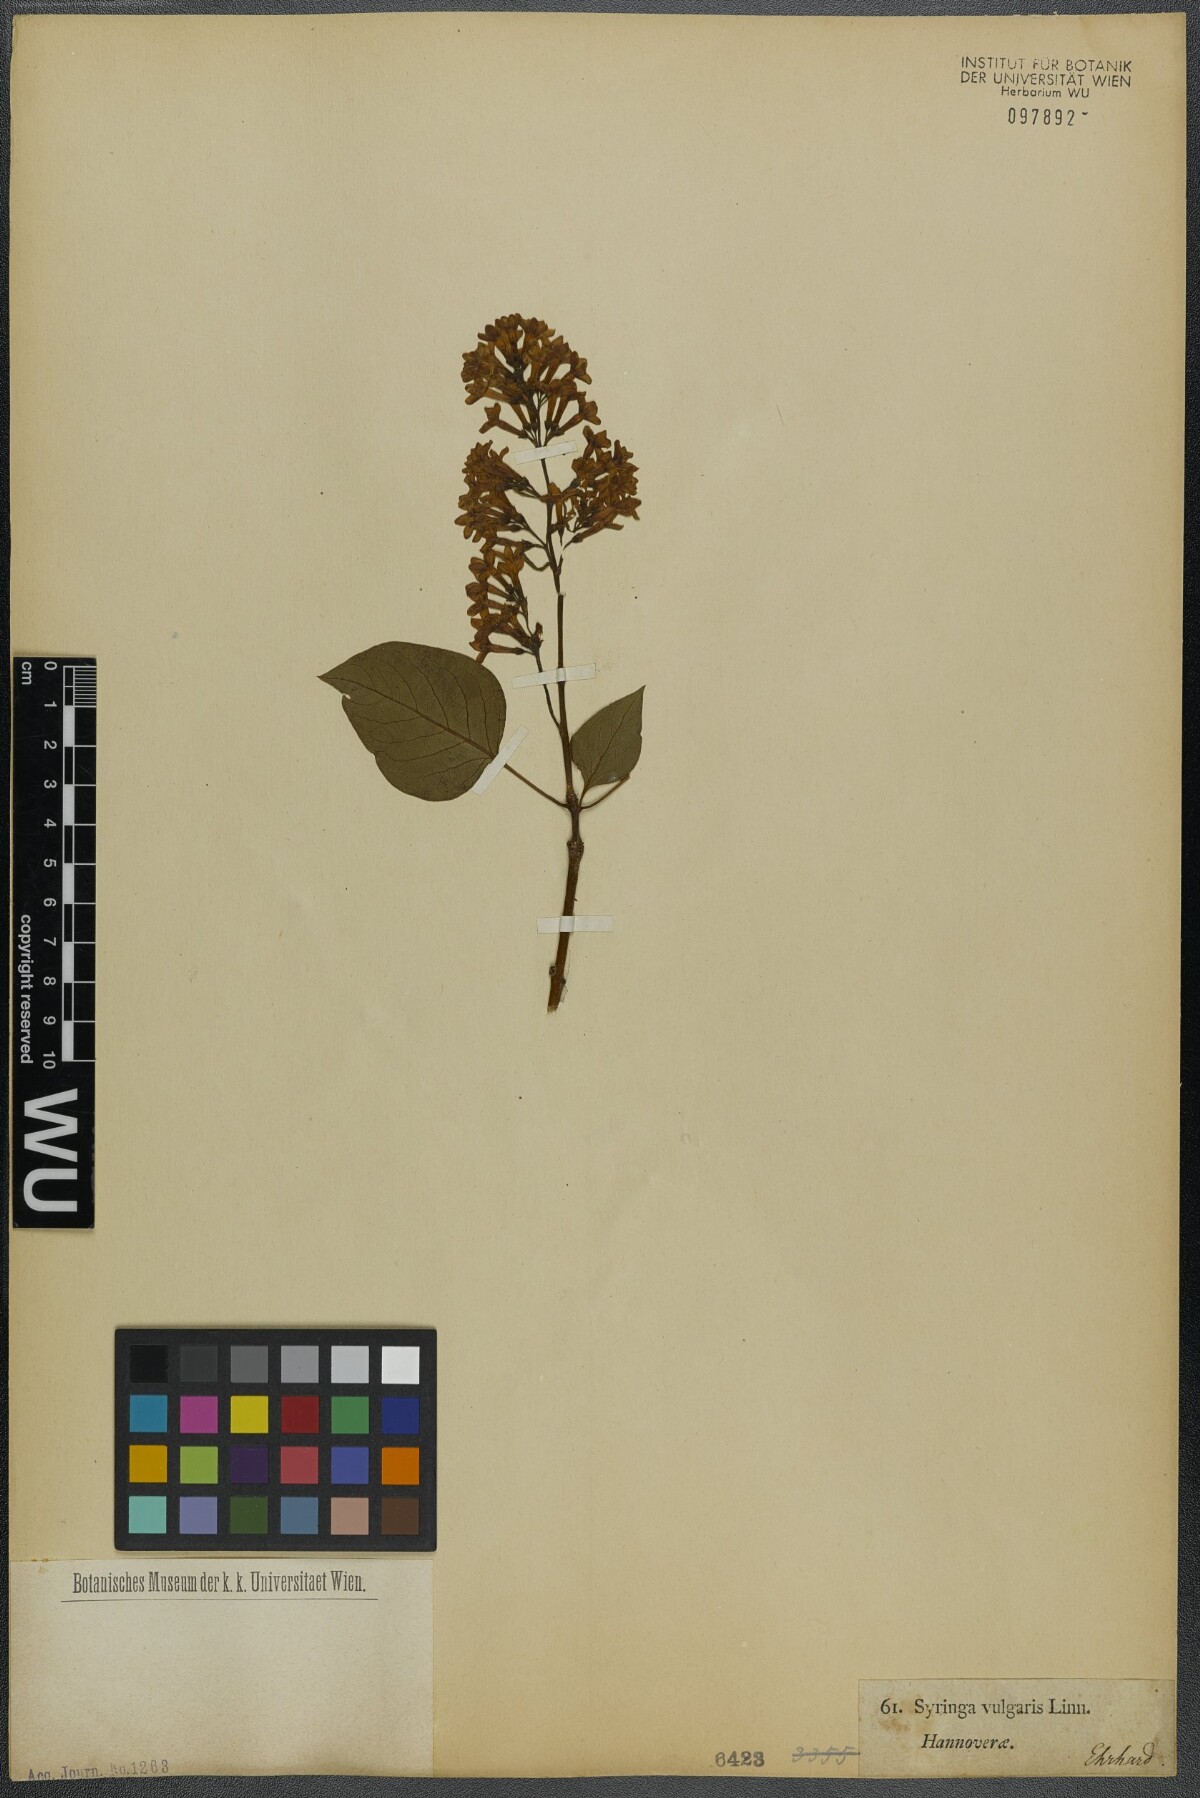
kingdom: Plantae
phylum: Tracheophyta
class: Magnoliopsida
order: Lamiales
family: Oleaceae
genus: Syringa
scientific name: Syringa vulgaris
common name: Common lilac
